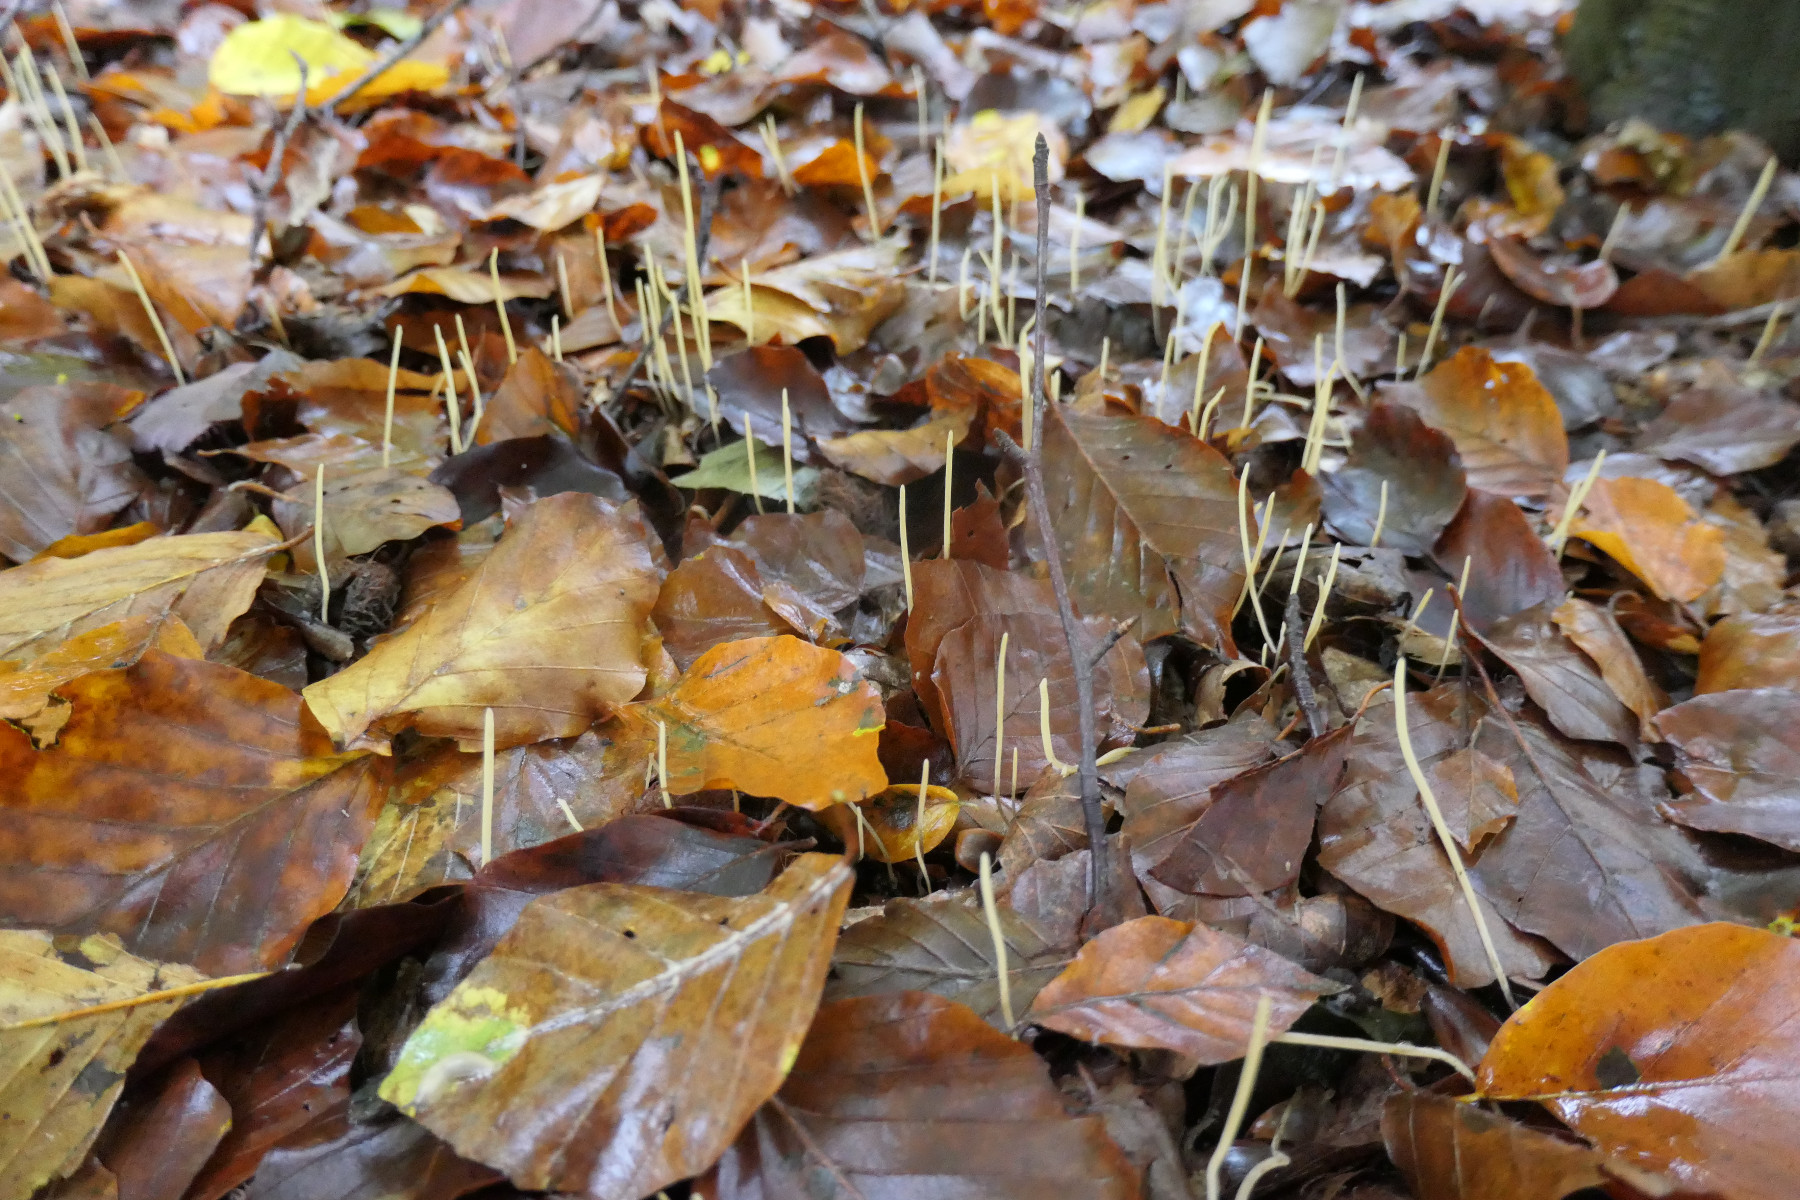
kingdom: Fungi
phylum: Basidiomycota
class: Agaricomycetes
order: Agaricales
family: Typhulaceae
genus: Typhula
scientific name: Typhula juncea
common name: trådagtig rørkølle
